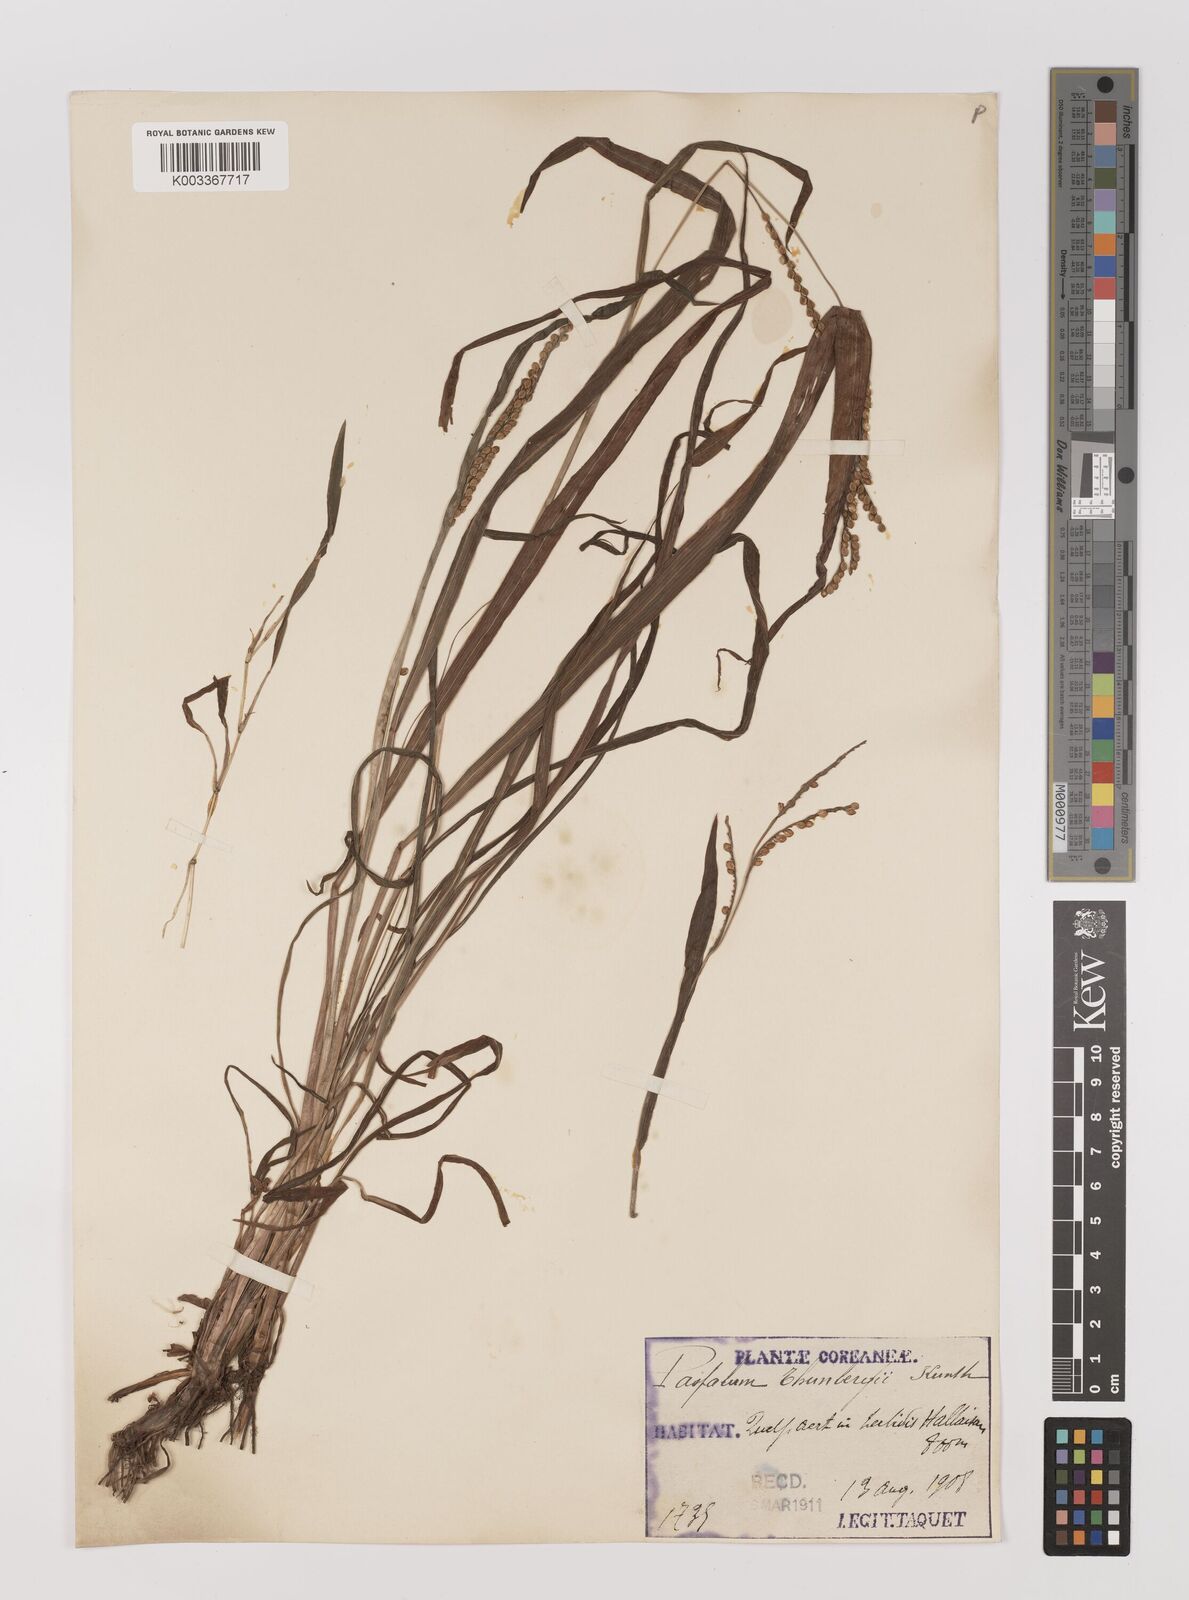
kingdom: Plantae
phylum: Tracheophyta
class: Liliopsida
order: Poales
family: Poaceae
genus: Panicum
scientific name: Panicum
